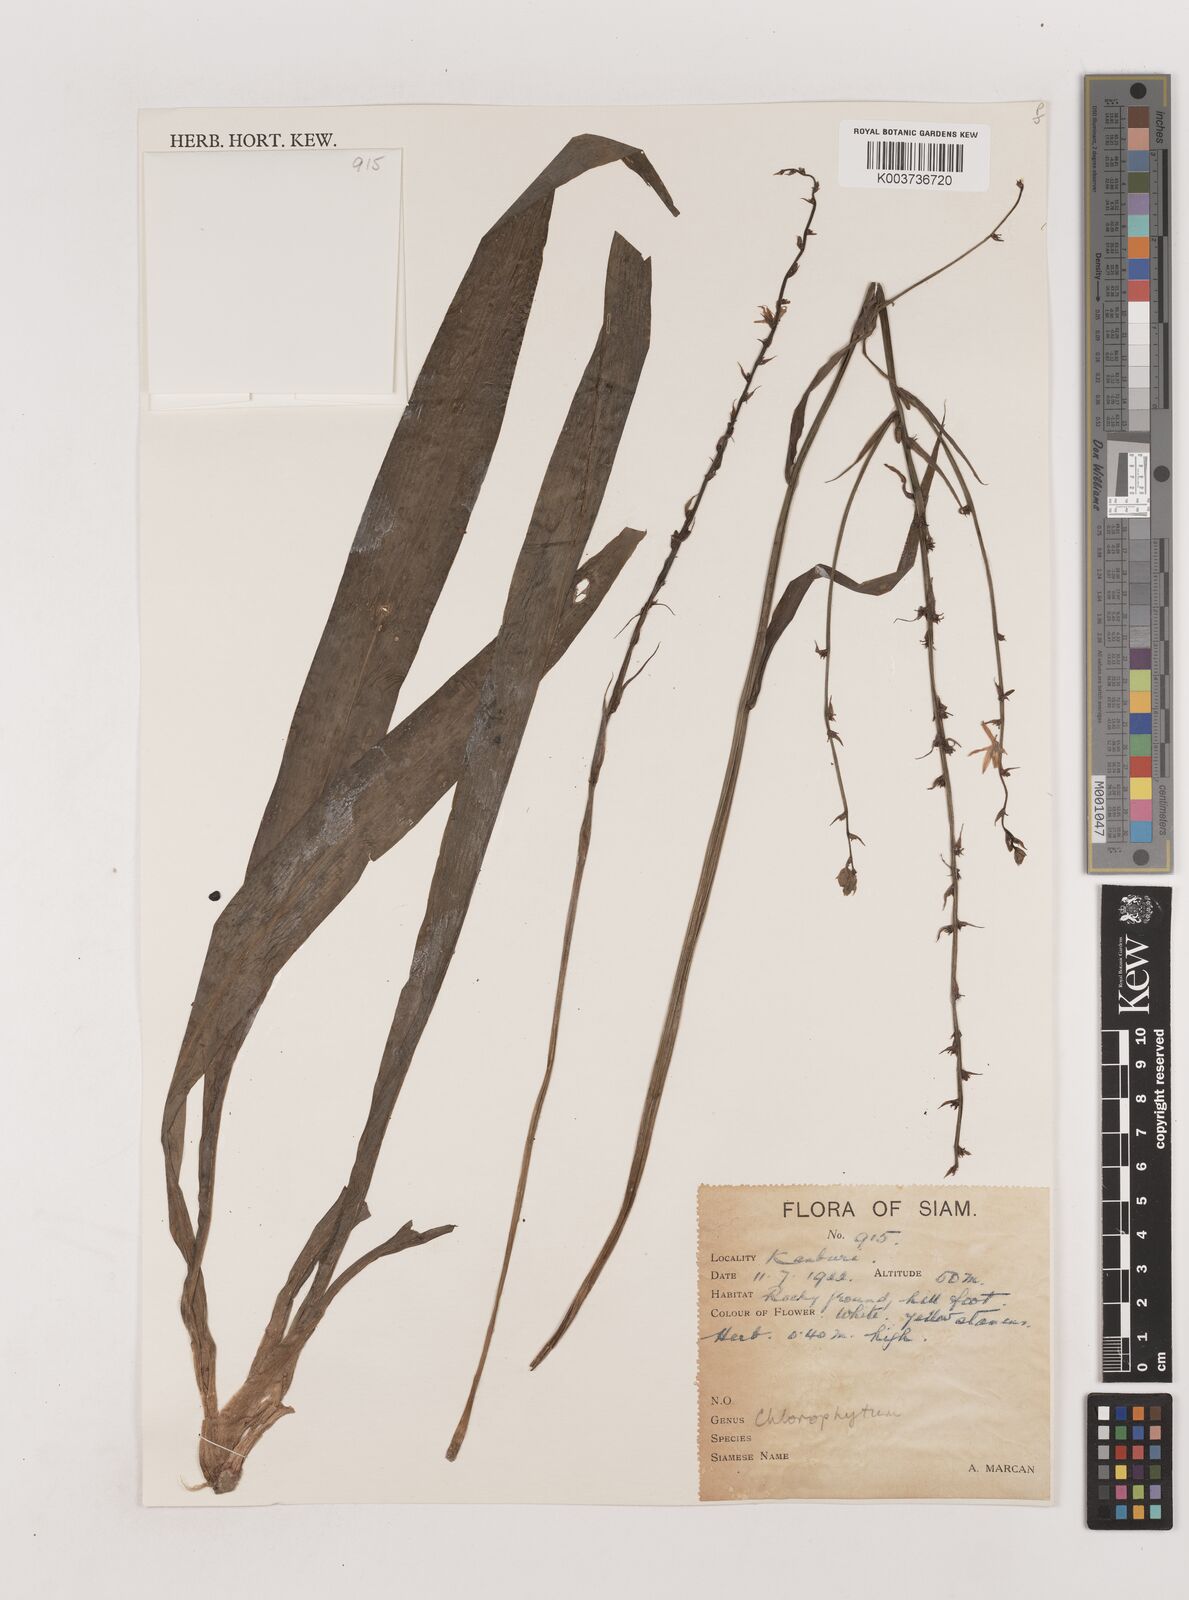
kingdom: Plantae
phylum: Tracheophyta
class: Liliopsida
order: Asparagales
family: Asparagaceae
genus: Chlorophytum
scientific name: Chlorophytum
